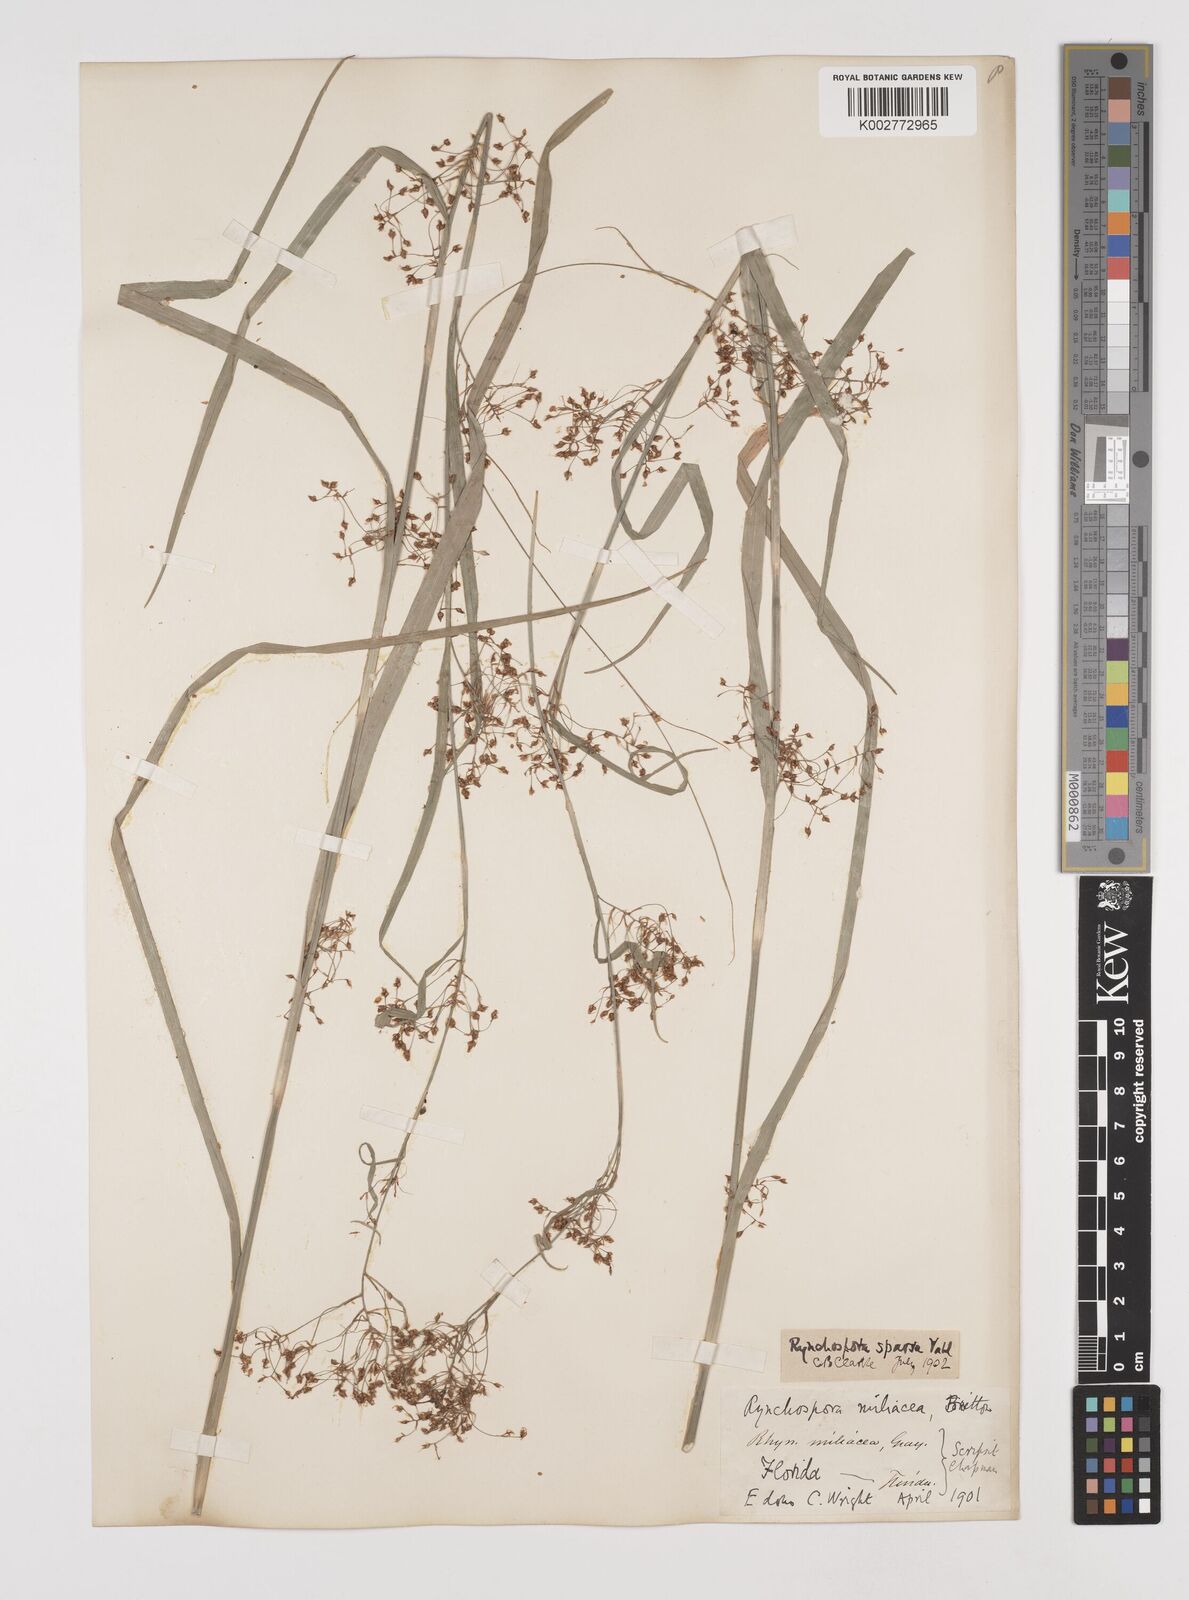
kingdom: Plantae
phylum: Tracheophyta
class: Liliopsida
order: Poales
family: Cyperaceae
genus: Rhynchospora
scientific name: Rhynchospora miliacea
